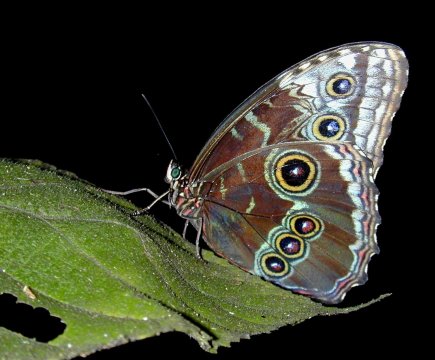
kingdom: Animalia
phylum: Arthropoda
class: Insecta
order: Lepidoptera
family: Nymphalidae
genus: Morpho
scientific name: Morpho helenor
